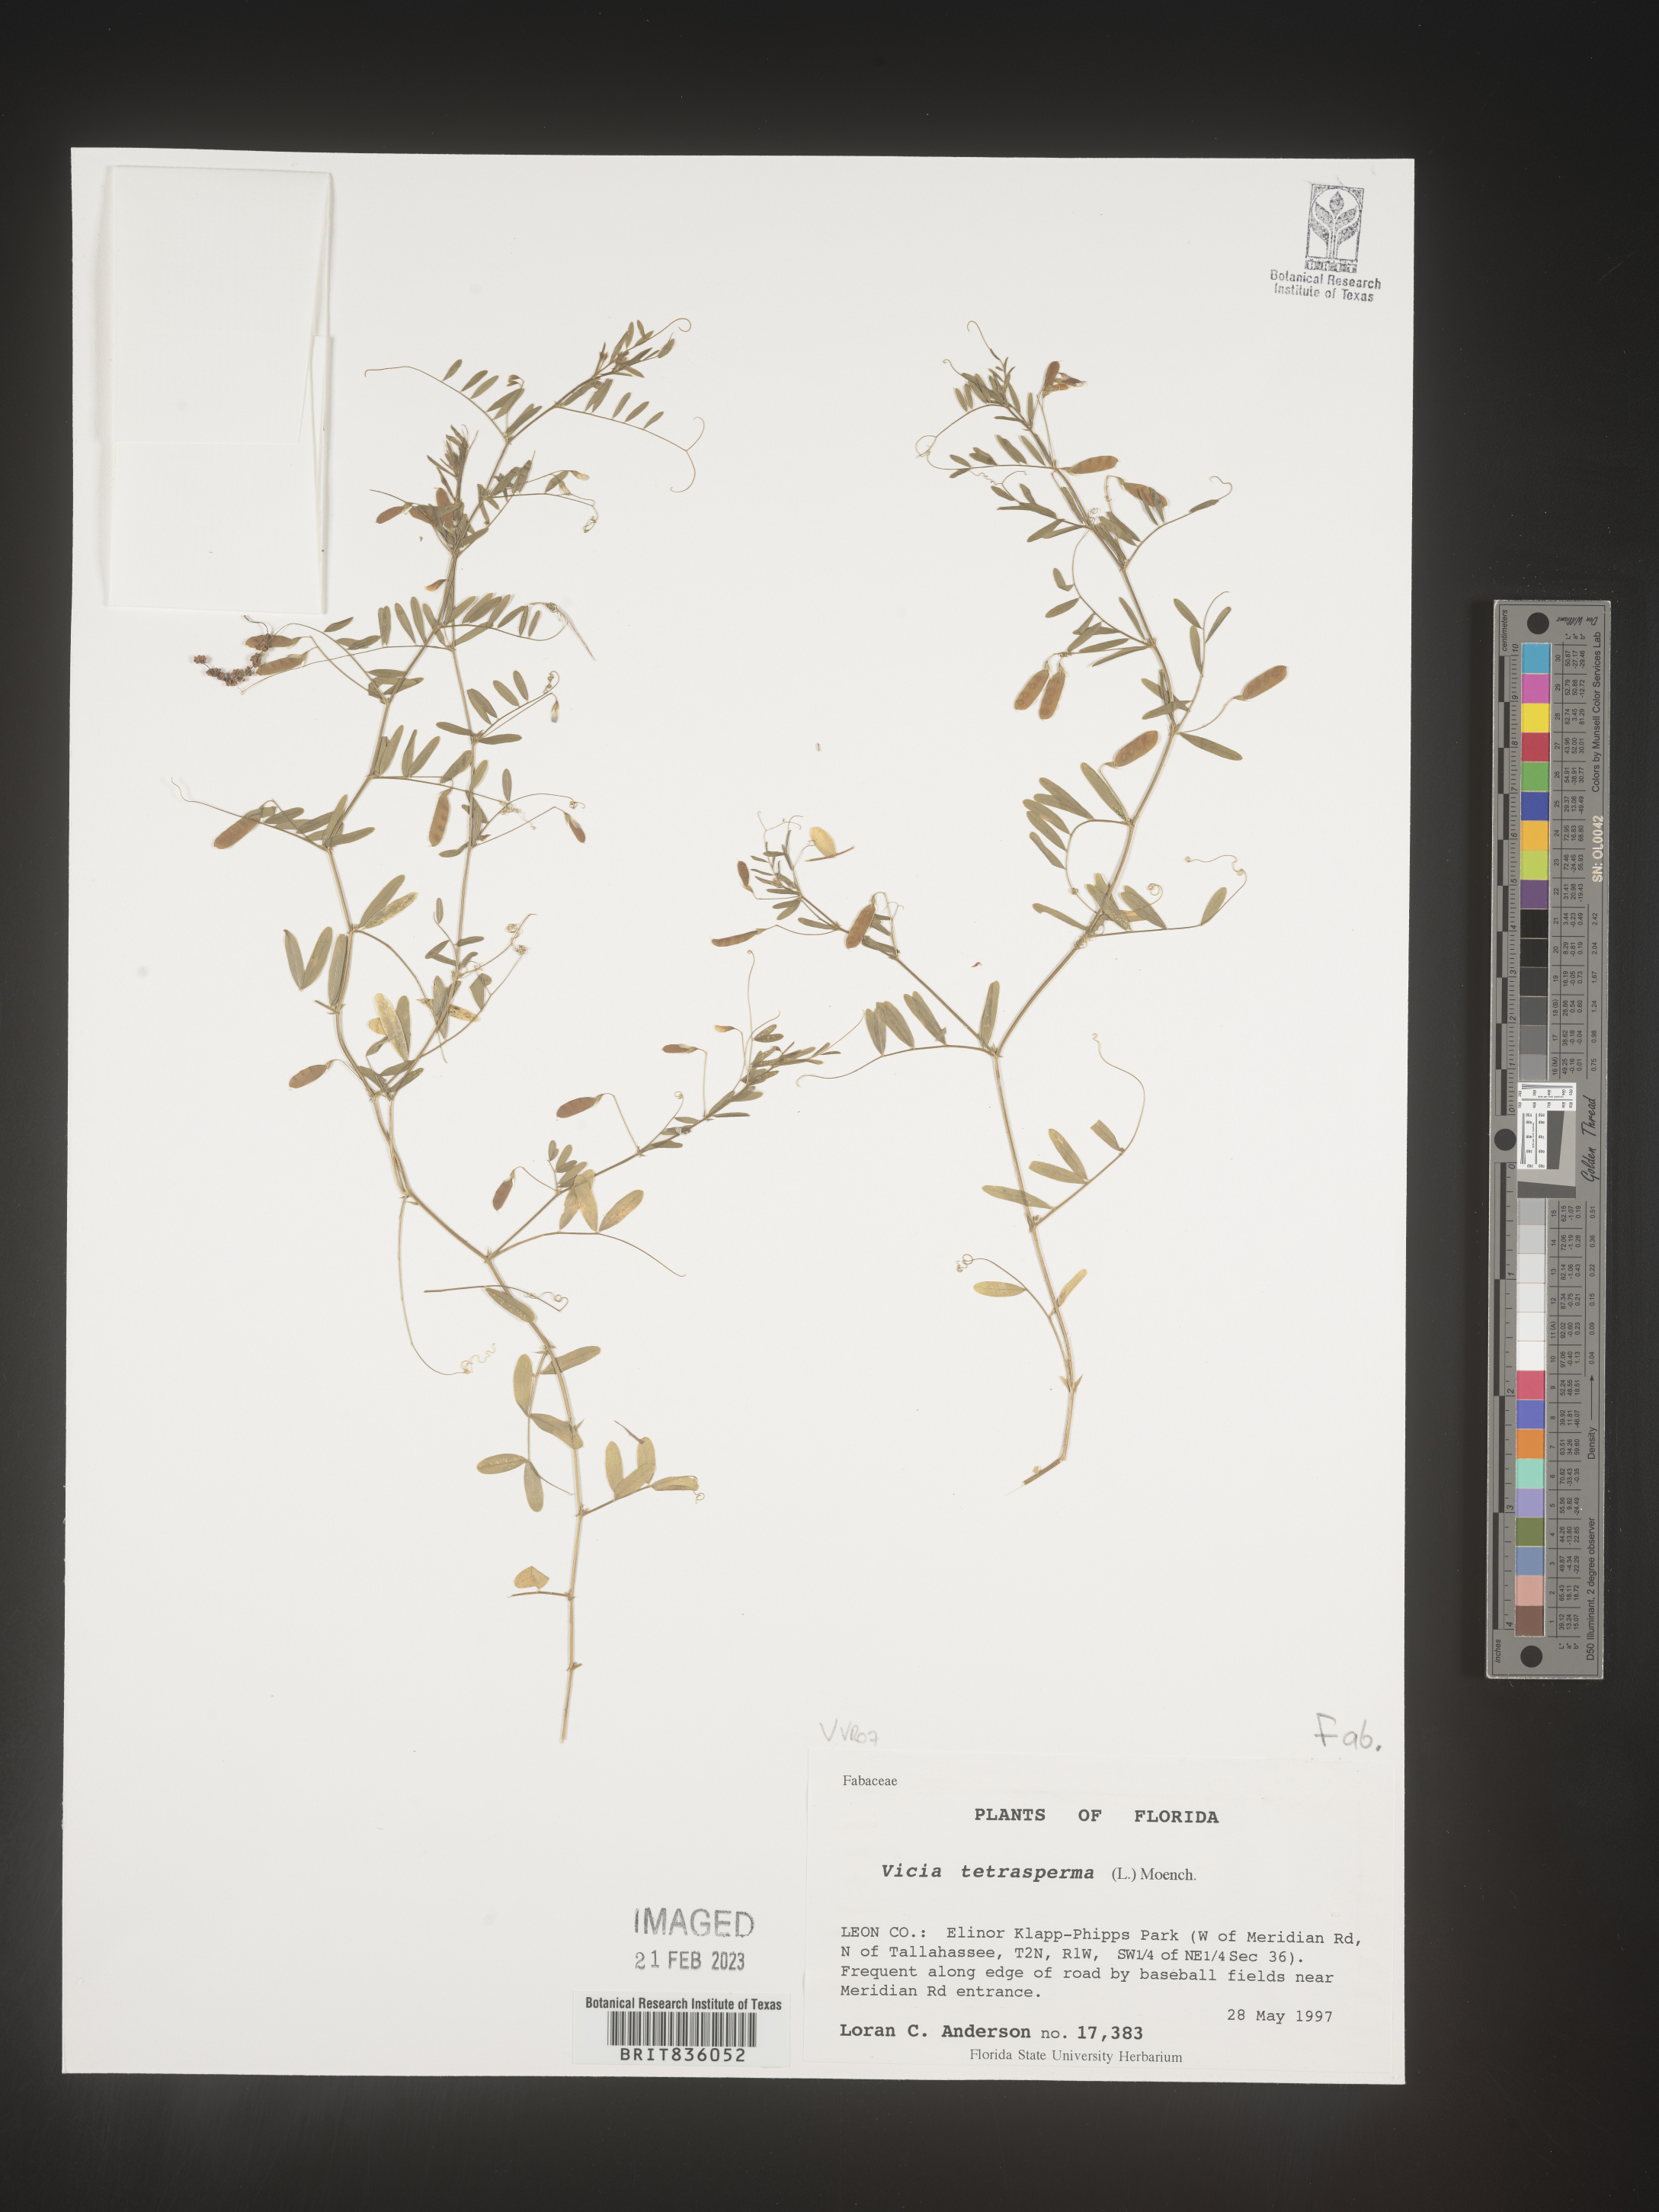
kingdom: Plantae
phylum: Tracheophyta
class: Magnoliopsida
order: Fabales
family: Fabaceae
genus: Vicia
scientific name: Vicia tetrasperma
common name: Smooth tare
